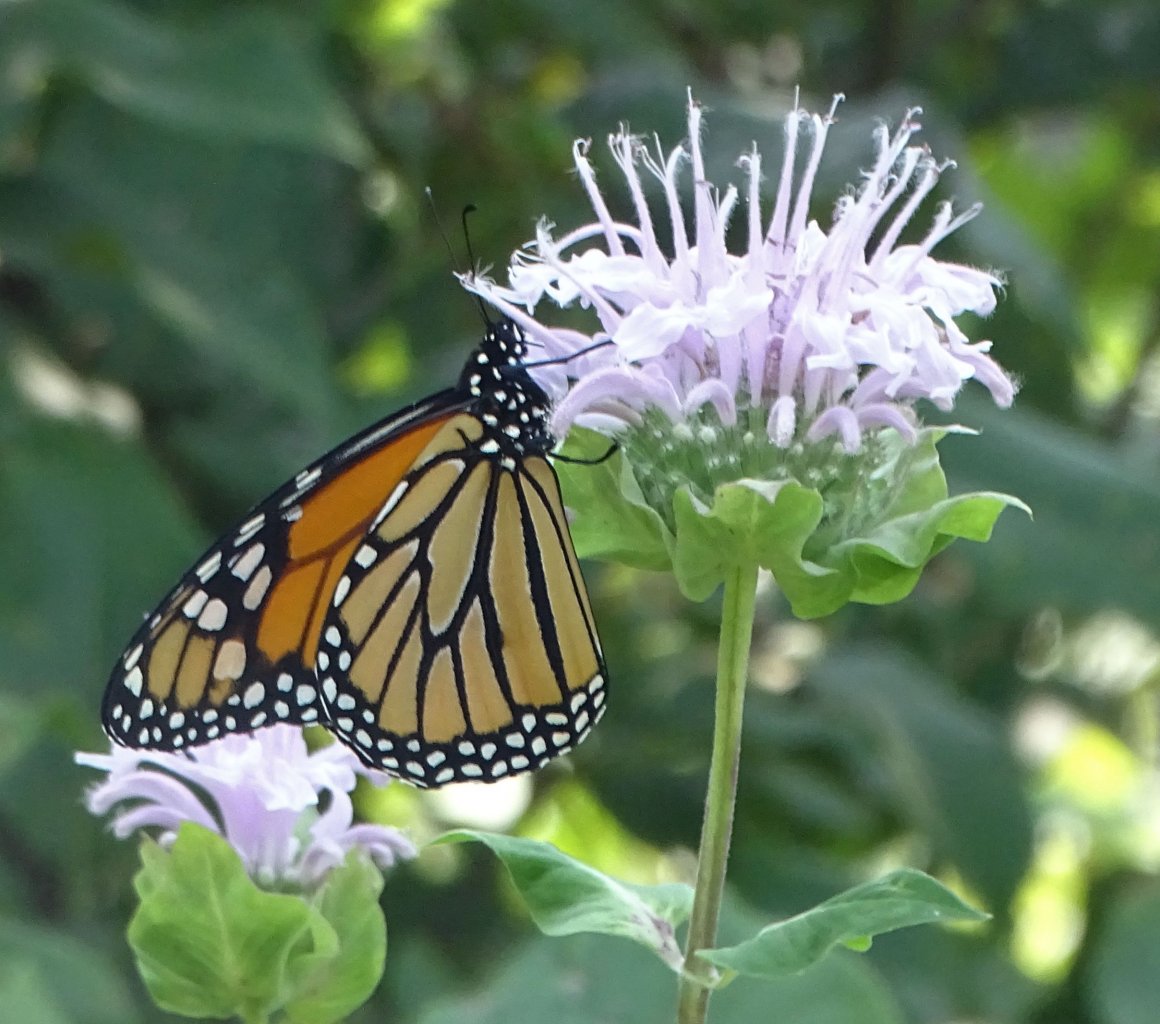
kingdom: Animalia
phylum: Arthropoda
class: Insecta
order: Lepidoptera
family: Nymphalidae
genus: Danaus
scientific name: Danaus plexippus
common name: Monarch
